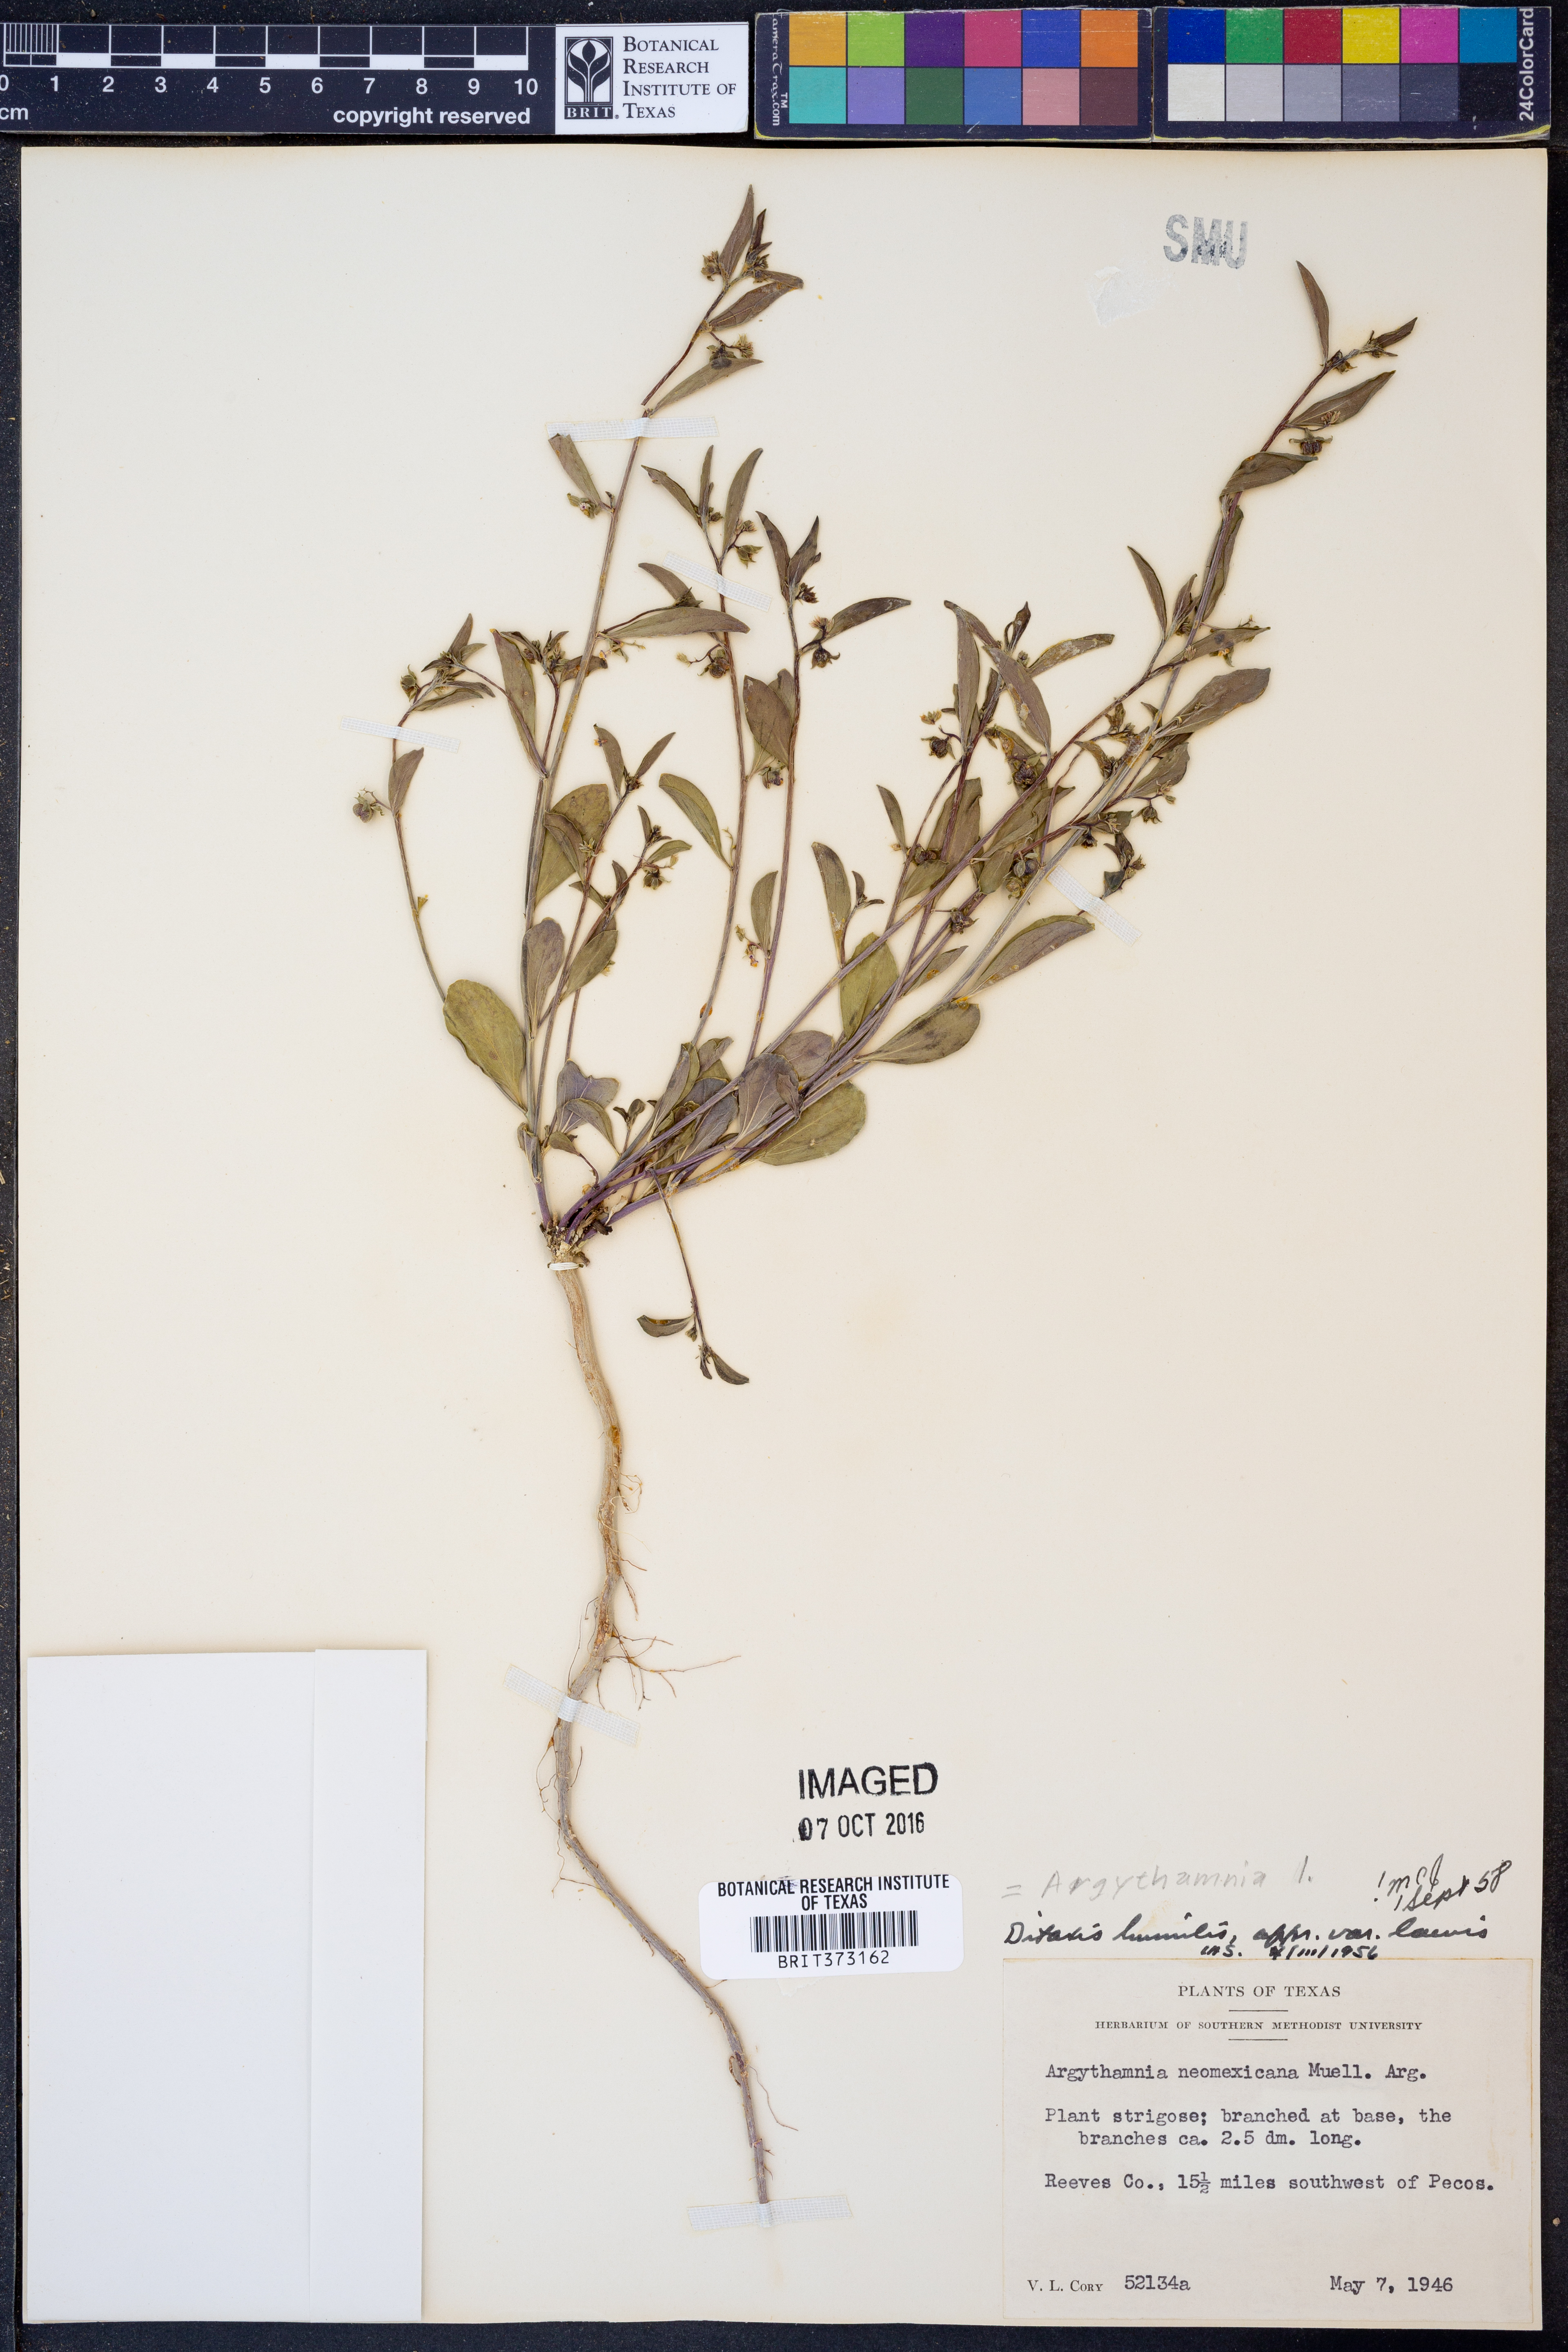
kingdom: Plantae
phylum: Tracheophyta
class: Magnoliopsida
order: Malpighiales
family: Euphorbiaceae
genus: Ditaxis
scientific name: Ditaxis humilis
